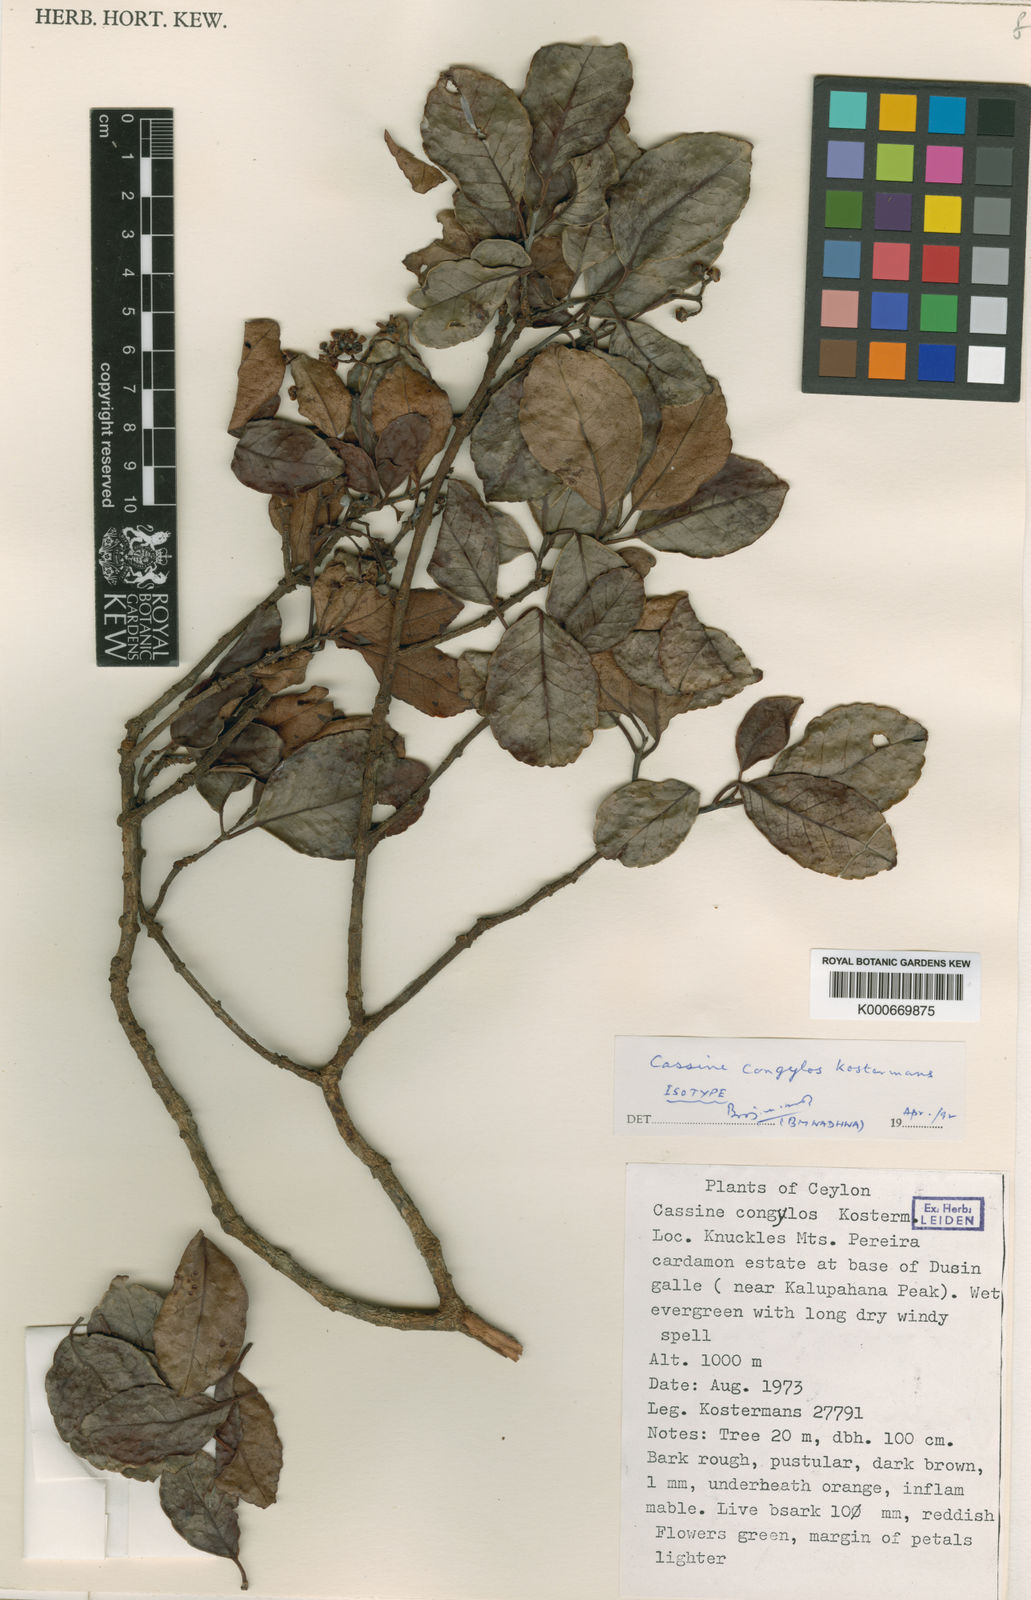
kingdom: Plantae
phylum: Tracheophyta
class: Magnoliopsida
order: Celastrales
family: Celastraceae
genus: Elaeodendron
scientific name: Elaeodendron
